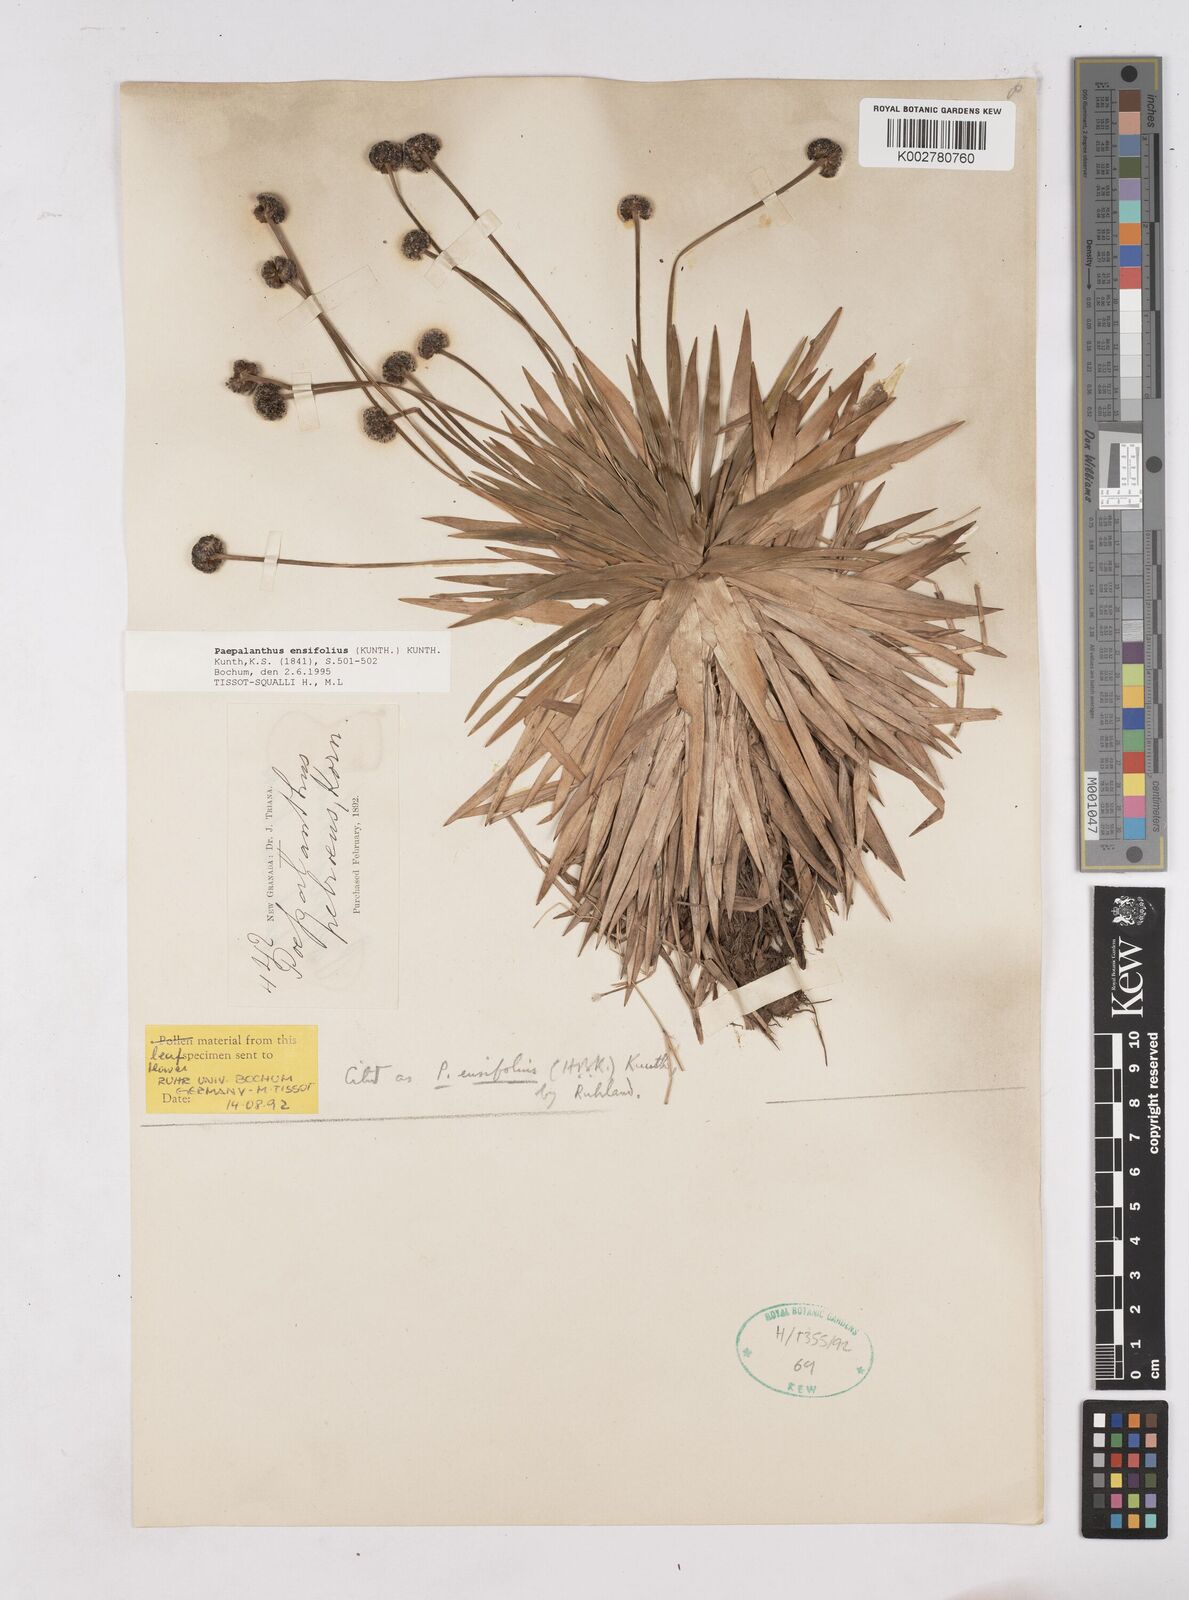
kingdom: Plantae
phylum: Tracheophyta
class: Liliopsida
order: Poales
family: Eriocaulaceae
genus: Paepalanthus
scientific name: Paepalanthus ensifolius
